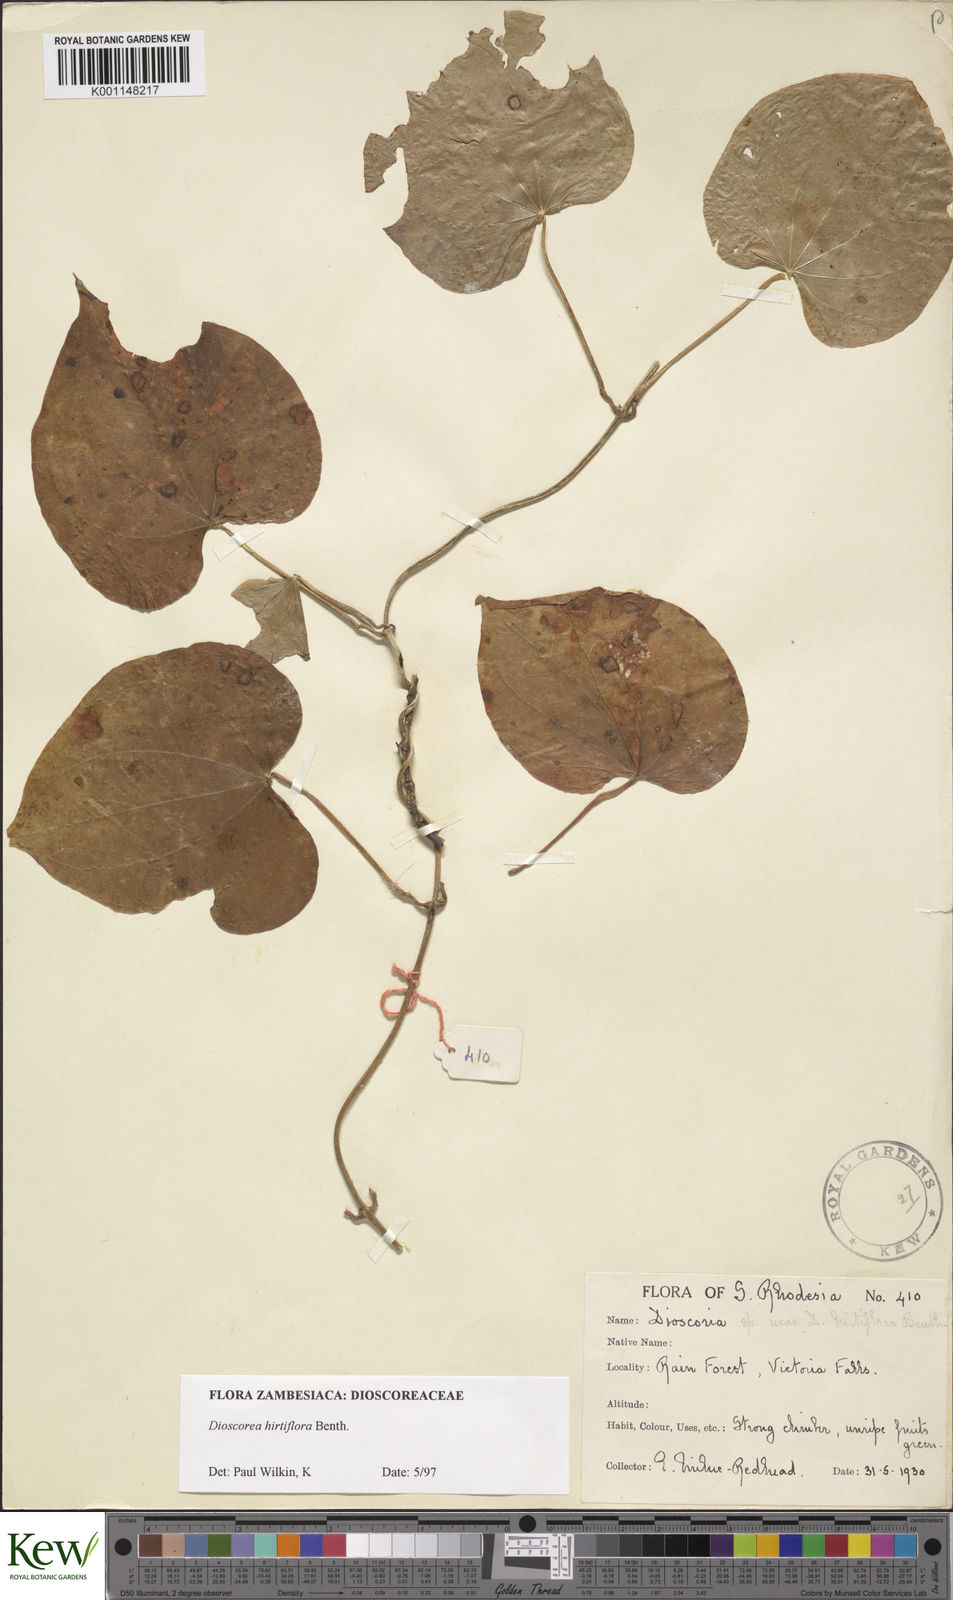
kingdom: Plantae
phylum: Tracheophyta
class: Liliopsida
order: Dioscoreales
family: Dioscoreaceae
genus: Dioscorea
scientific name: Dioscorea hirtiflora
